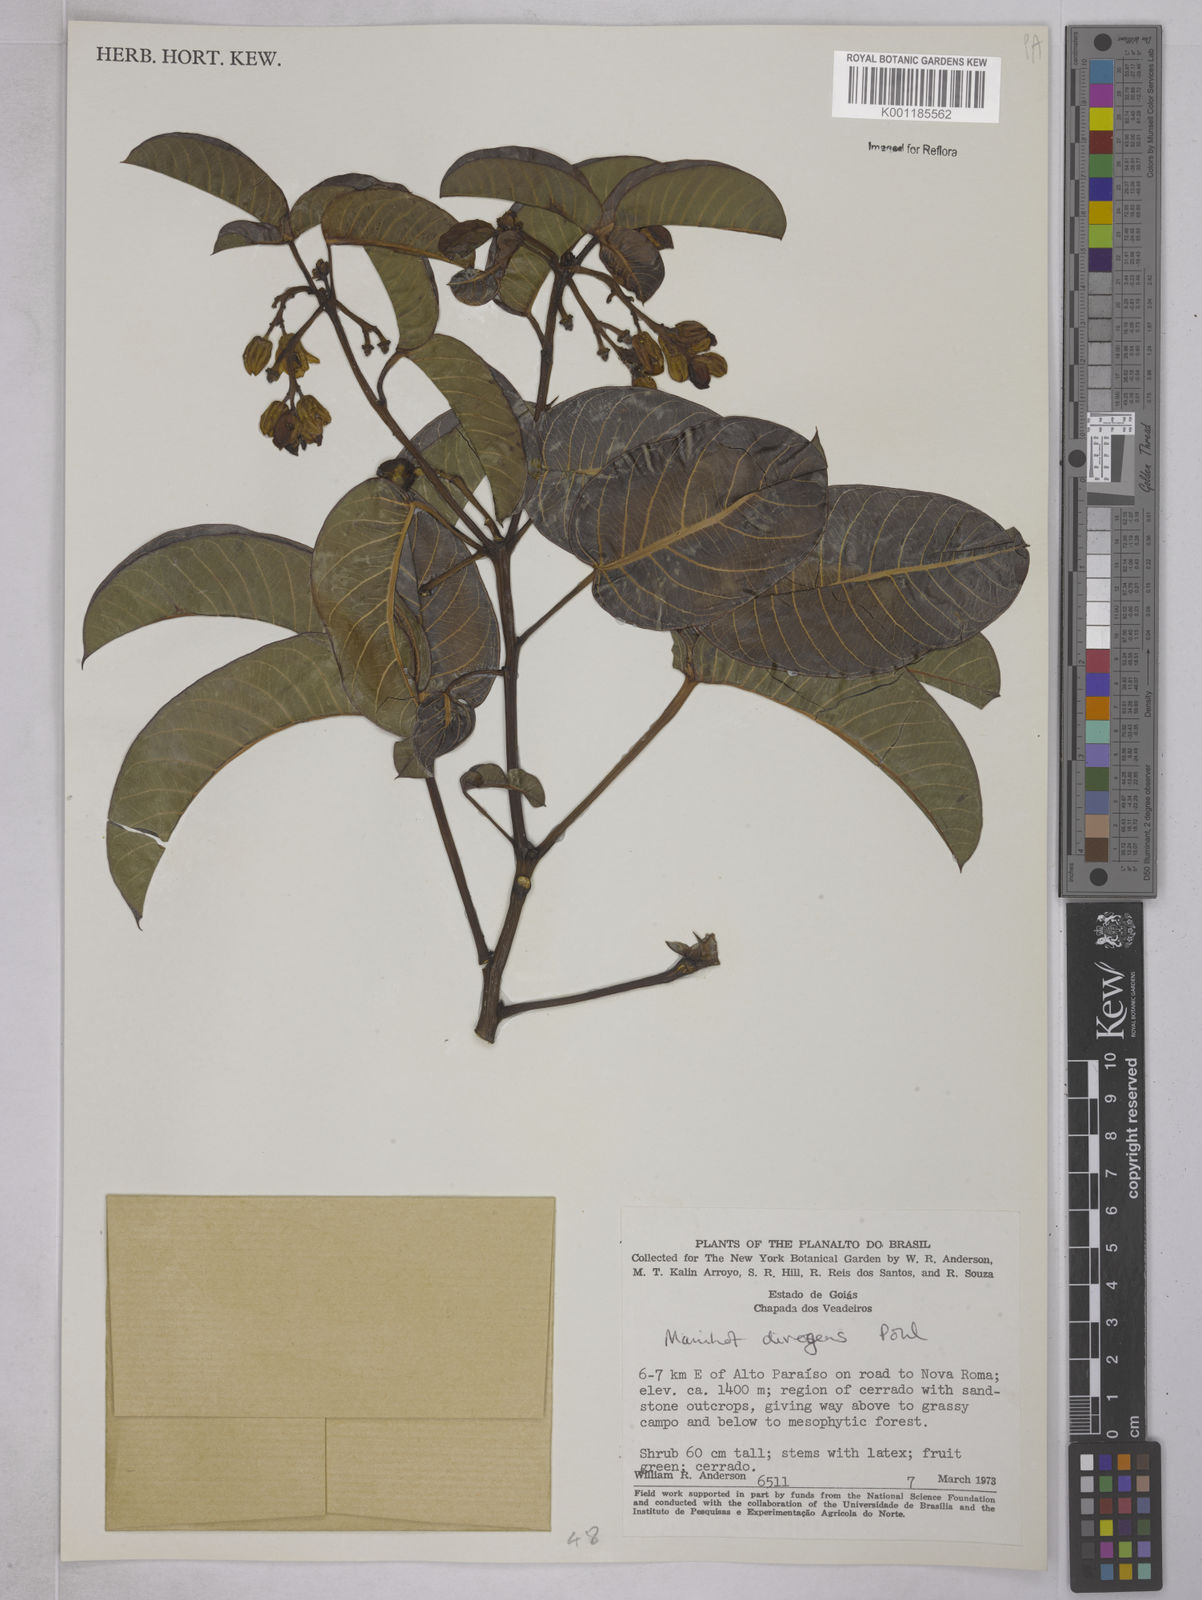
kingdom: Plantae
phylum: Tracheophyta
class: Magnoliopsida
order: Malpighiales
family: Euphorbiaceae
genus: Manihot
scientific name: Manihot divergens
